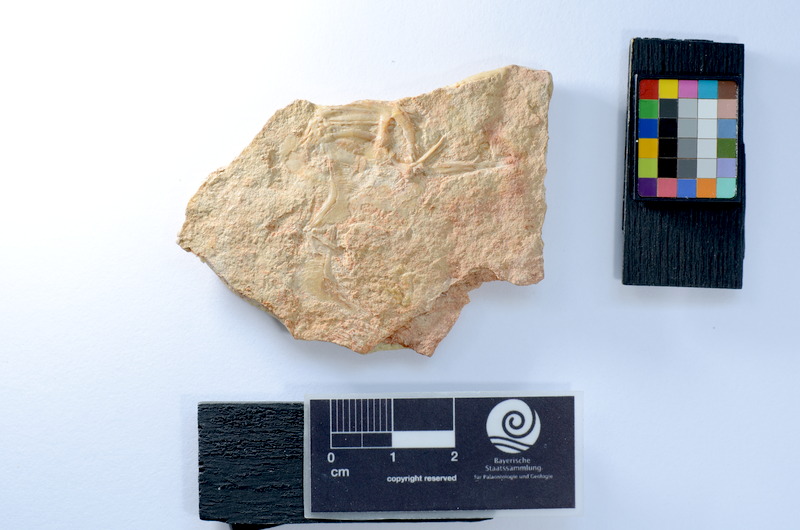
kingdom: Animalia
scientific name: Animalia
